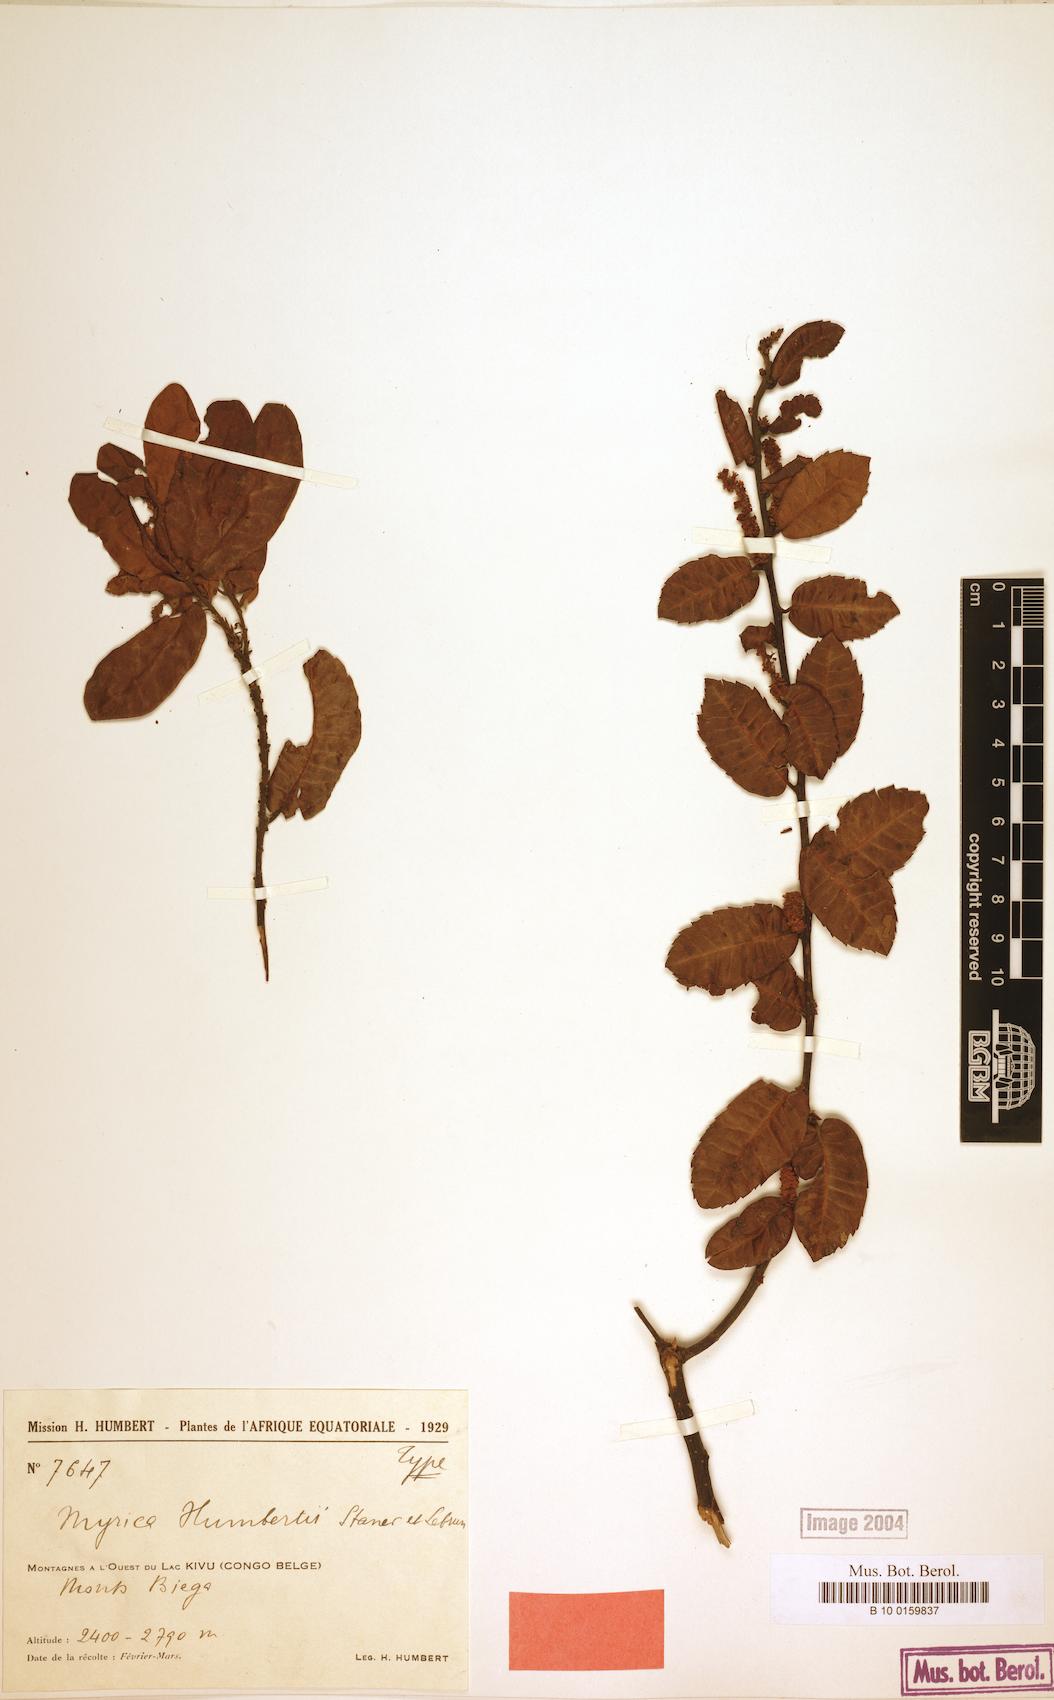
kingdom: Plantae
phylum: Tracheophyta
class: Magnoliopsida
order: Fagales
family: Myricaceae
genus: Morella
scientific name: Morella salicifolia
